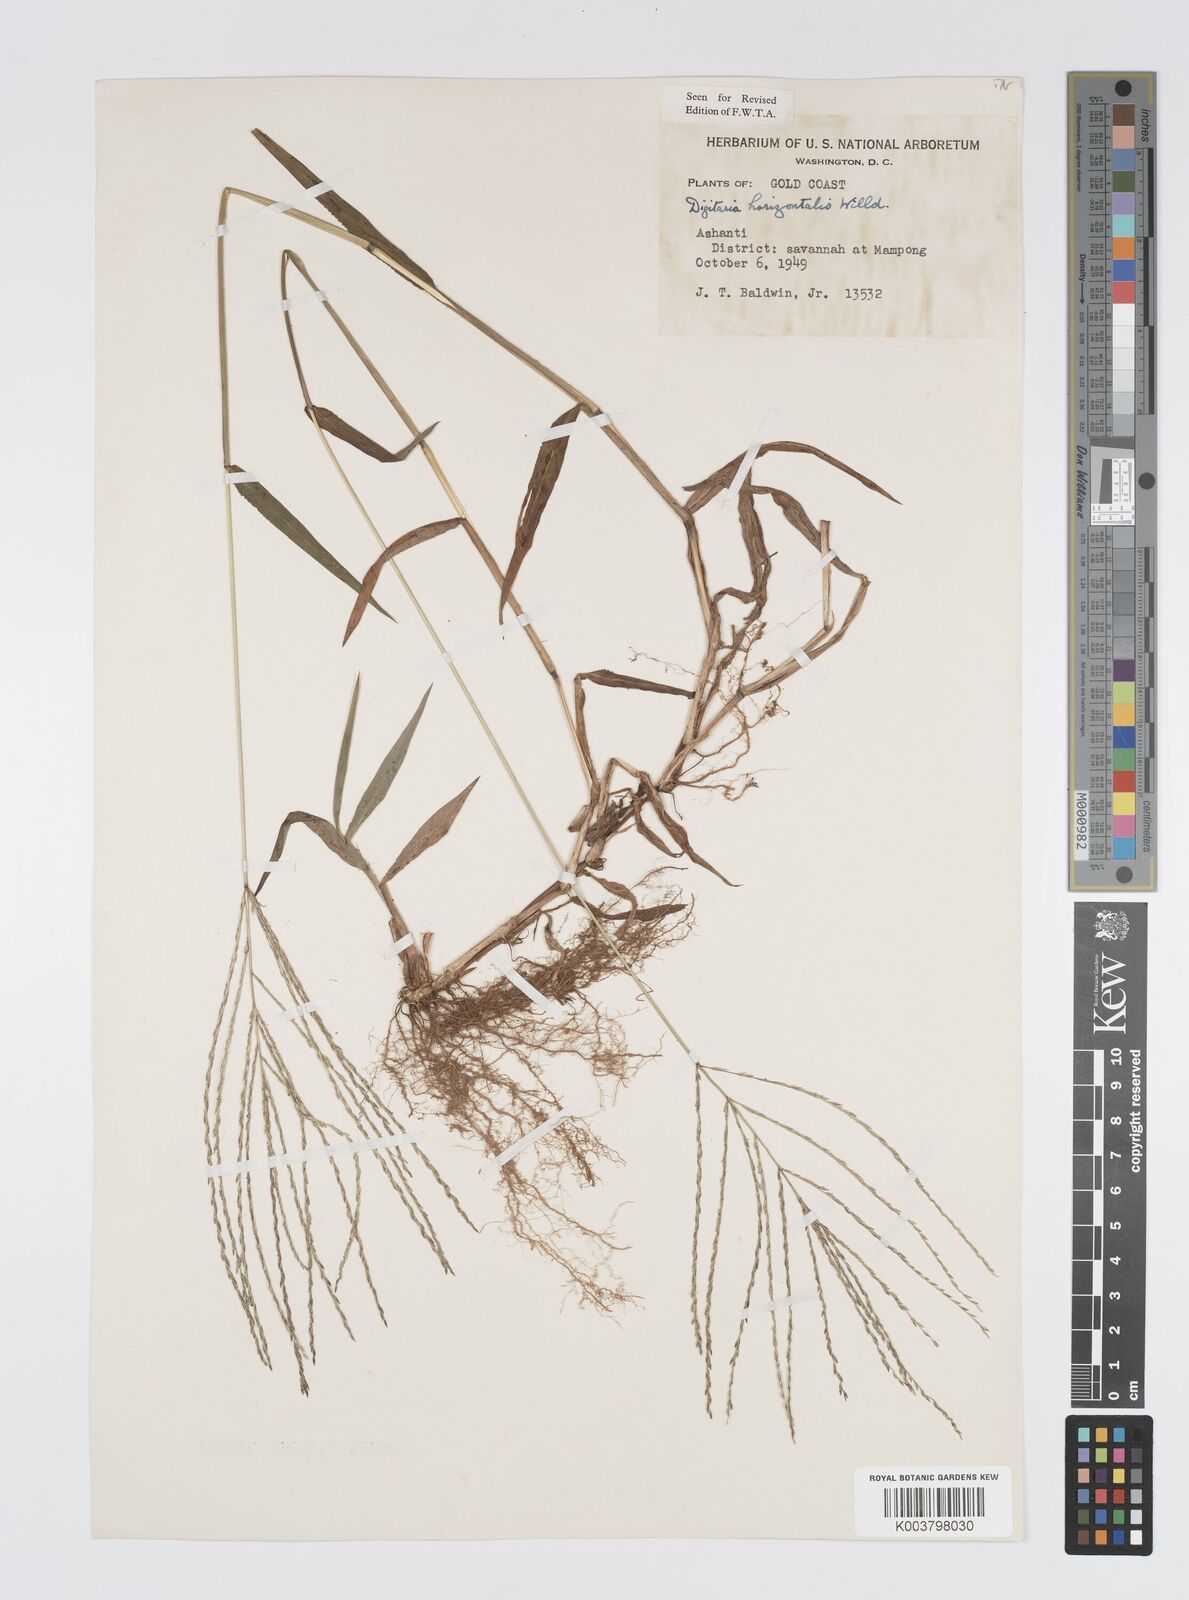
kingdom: Plantae
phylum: Tracheophyta
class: Liliopsida
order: Poales
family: Poaceae
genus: Digitaria
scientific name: Digitaria horizontalis
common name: Jamaican crabgrass
